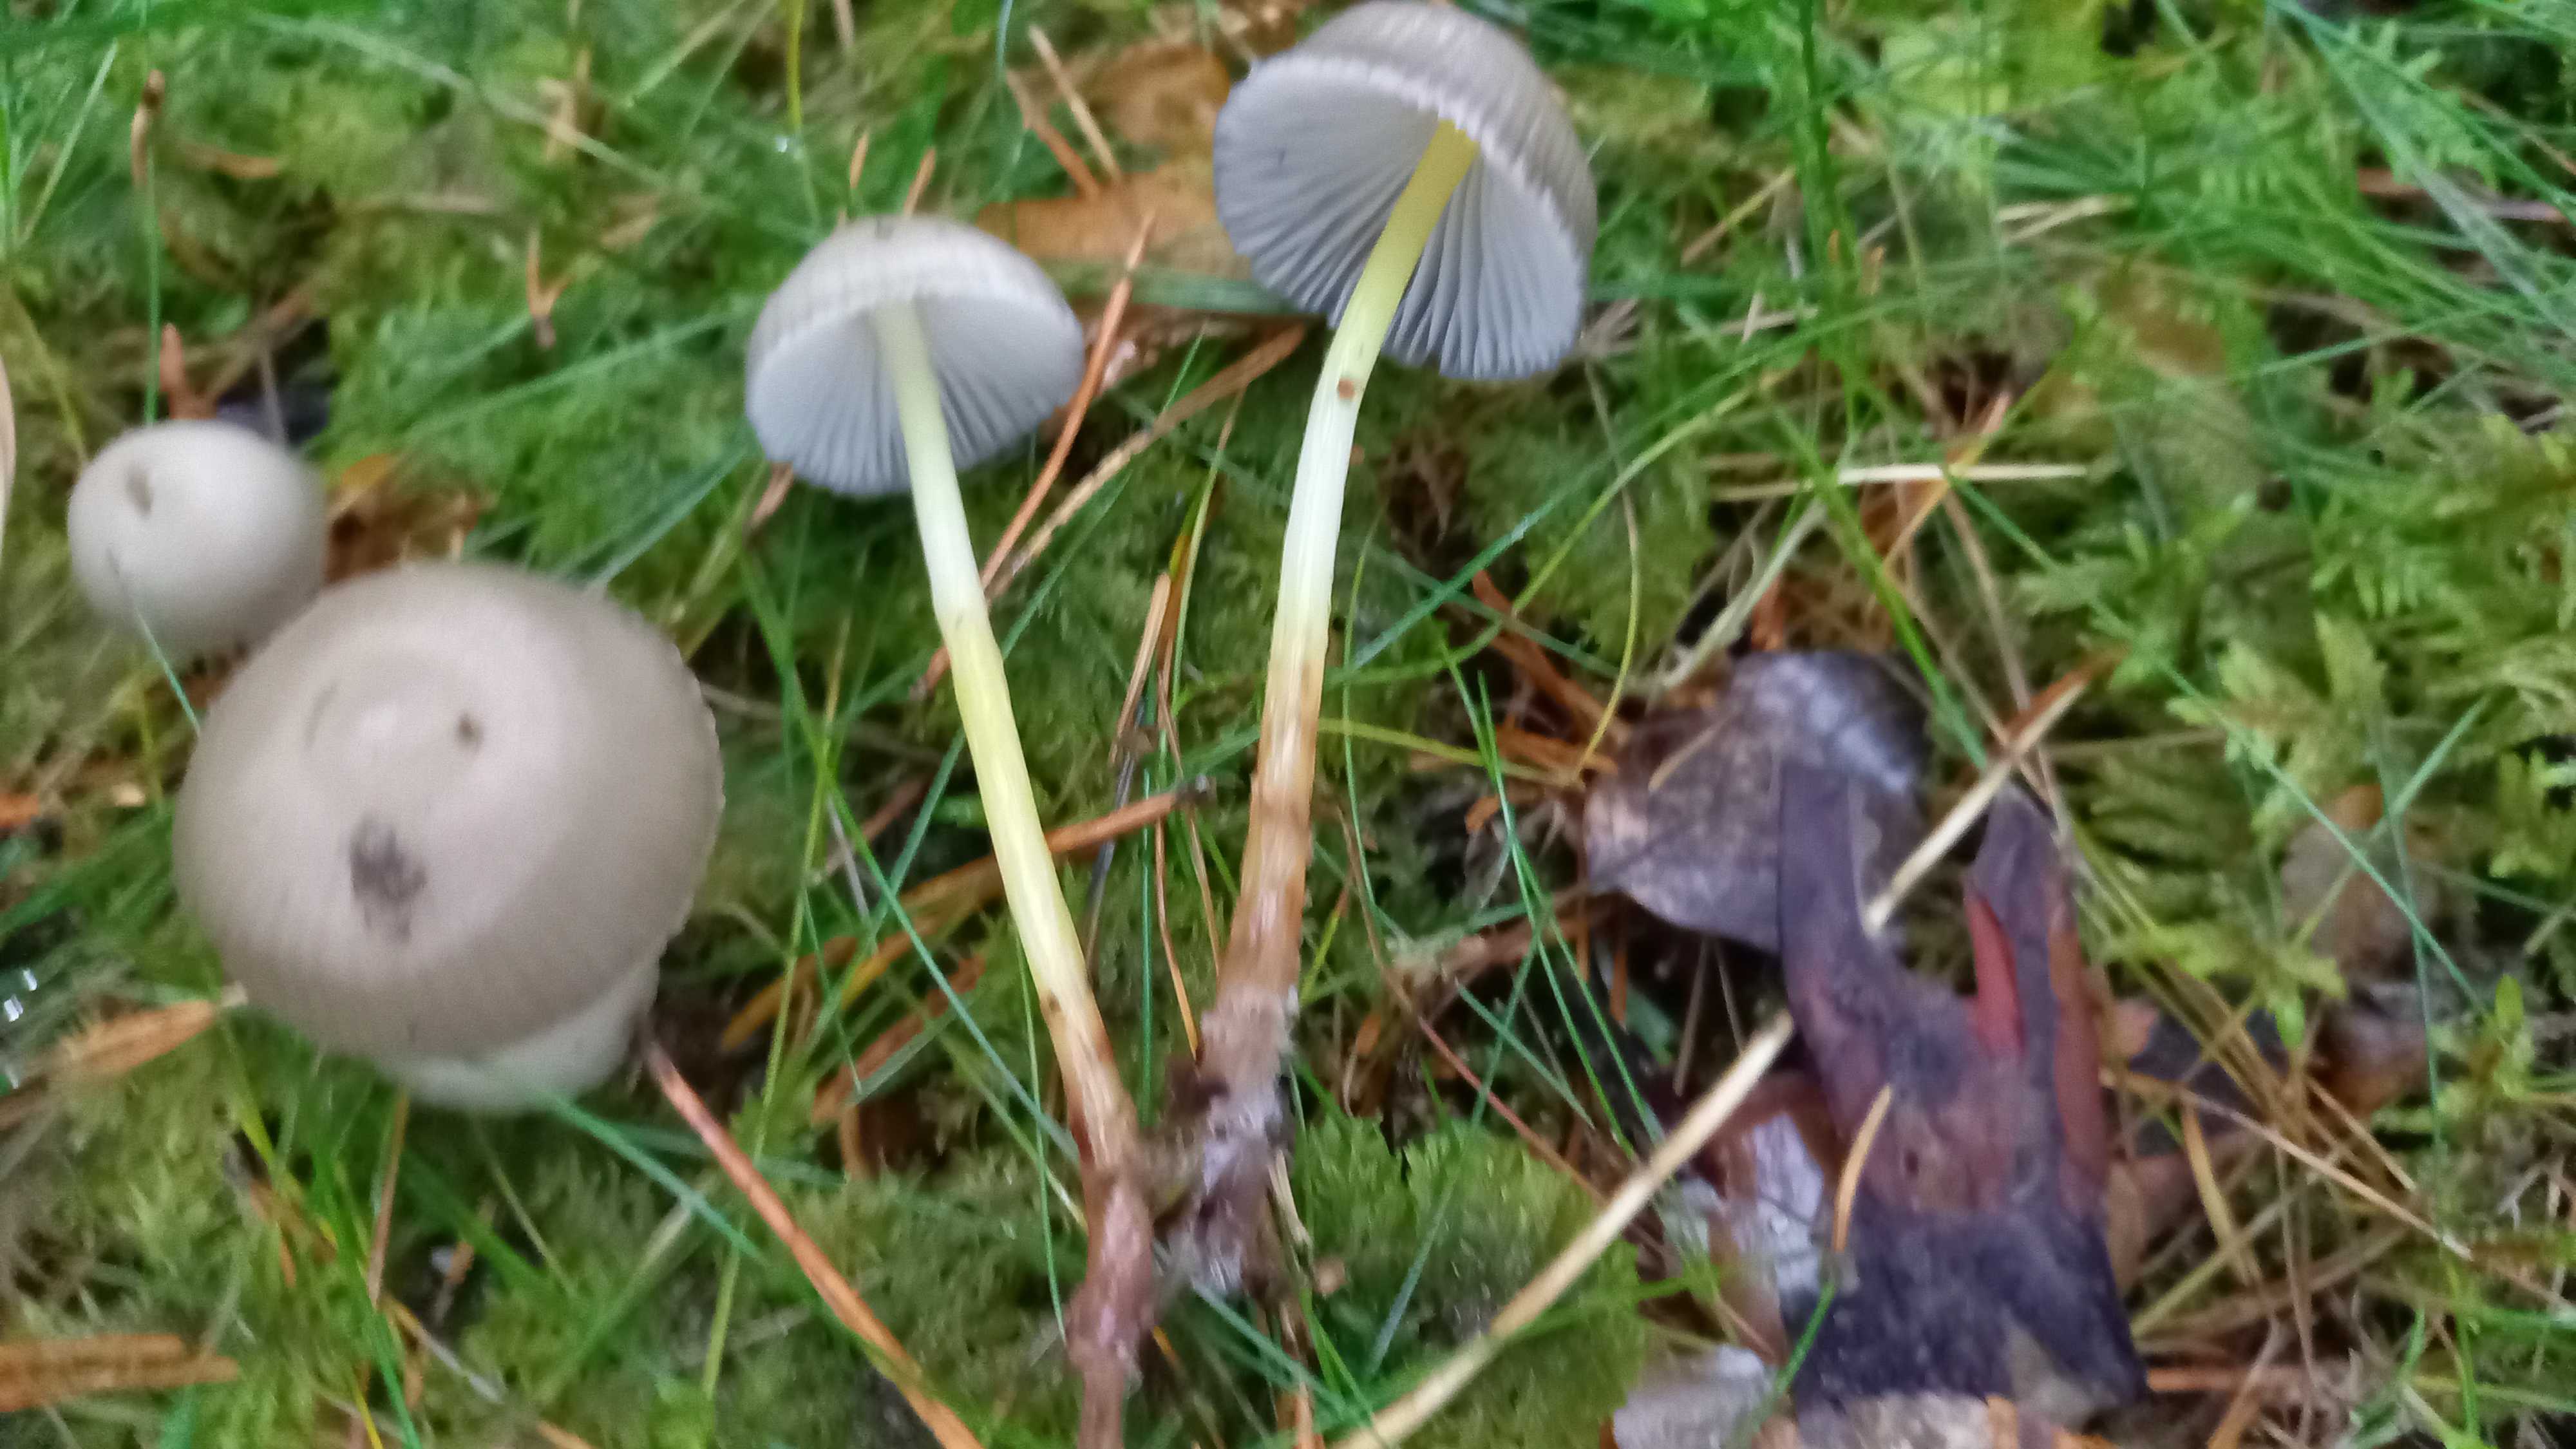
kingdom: Fungi
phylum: Basidiomycota
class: Agaricomycetes
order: Agaricales
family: Mycenaceae
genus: Mycena
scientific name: Mycena epipterygia
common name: gulstokket huesvamp
